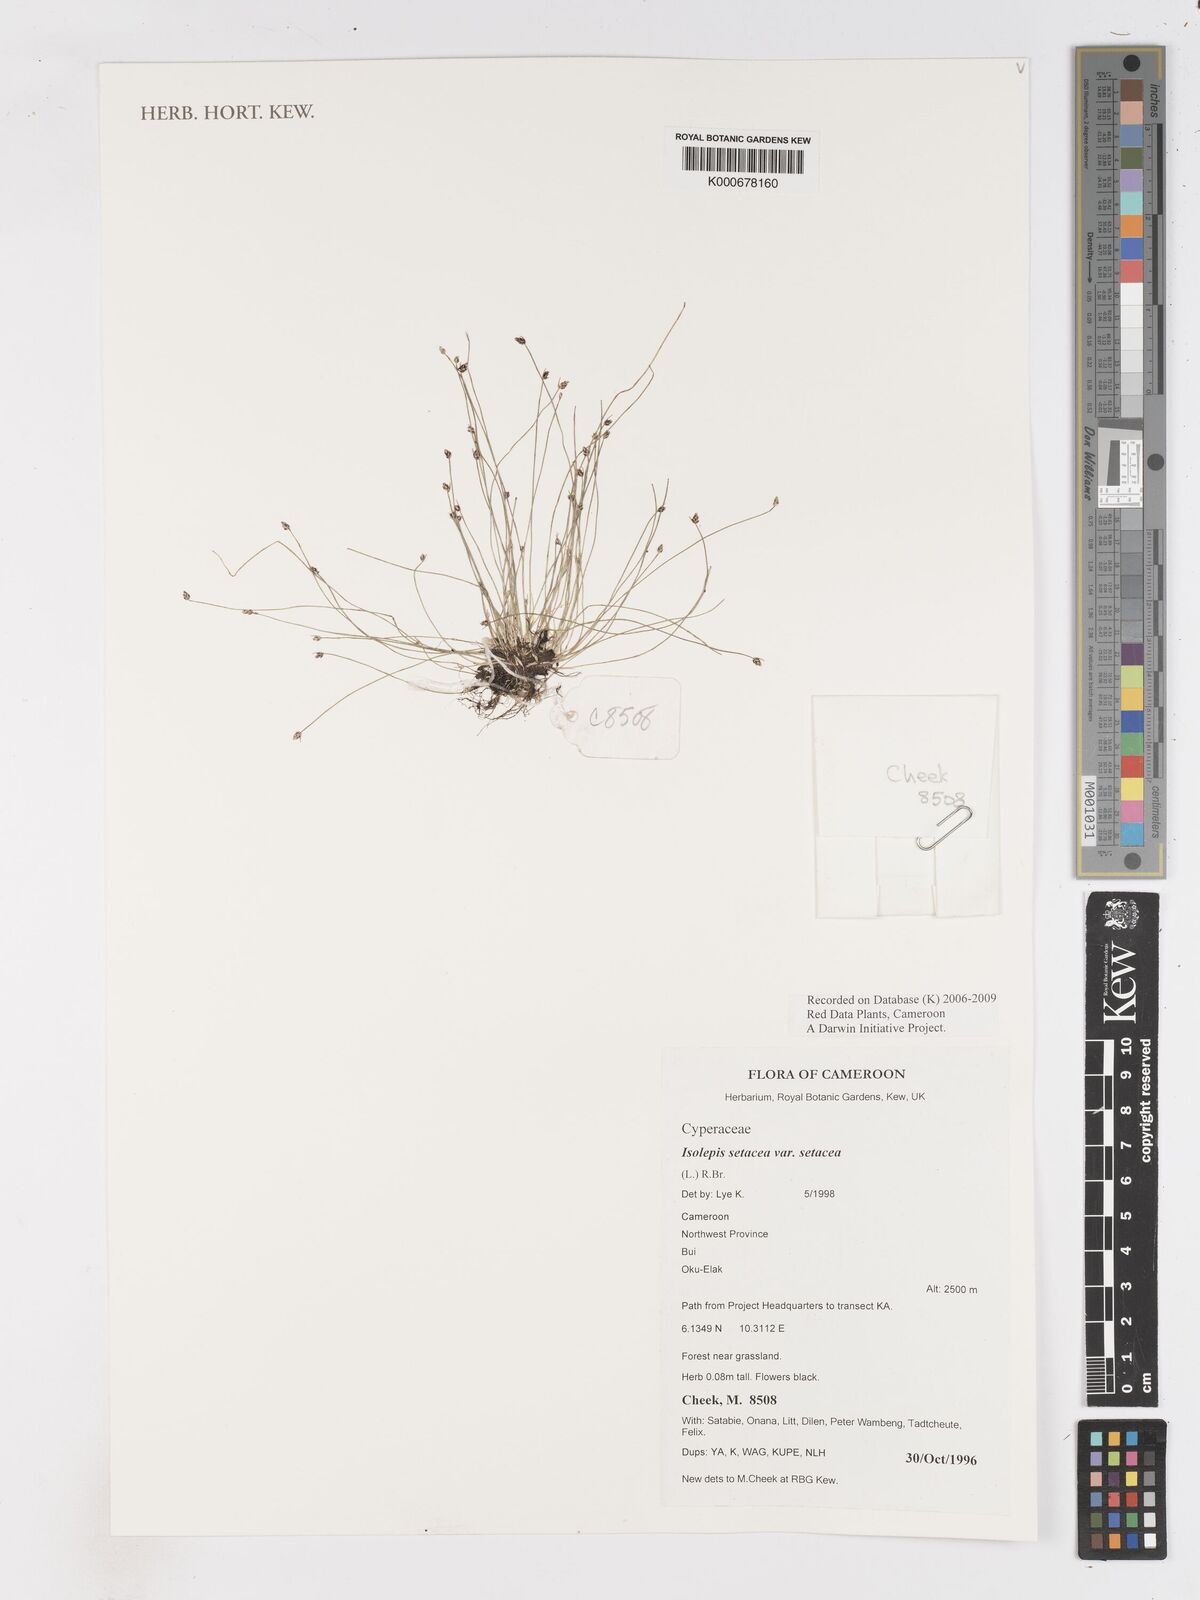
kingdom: Plantae
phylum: Tracheophyta
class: Liliopsida
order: Poales
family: Cyperaceae
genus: Isolepis
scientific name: Isolepis setacea
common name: Bristle club-rush
